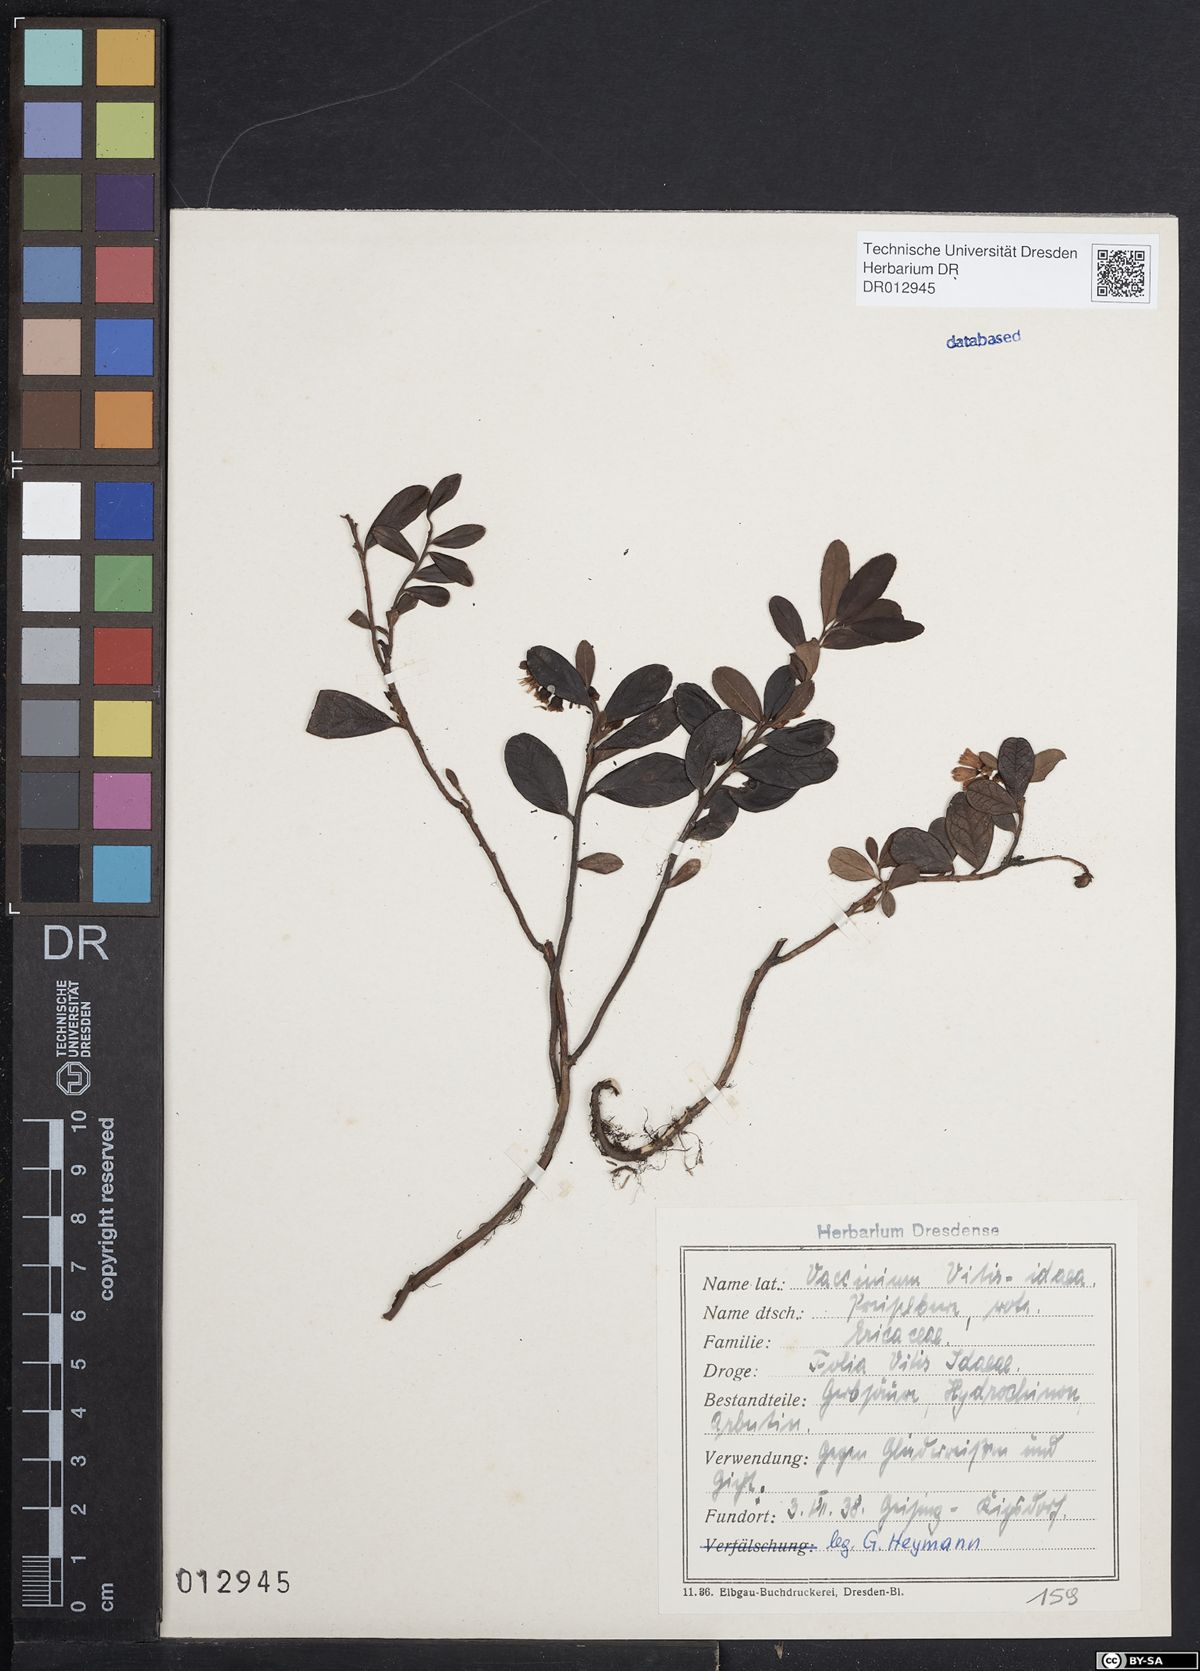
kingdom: Plantae
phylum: Tracheophyta
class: Magnoliopsida
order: Ericales
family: Ericaceae
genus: Vaccinium
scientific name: Vaccinium vitis-idaea
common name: Cowberry
